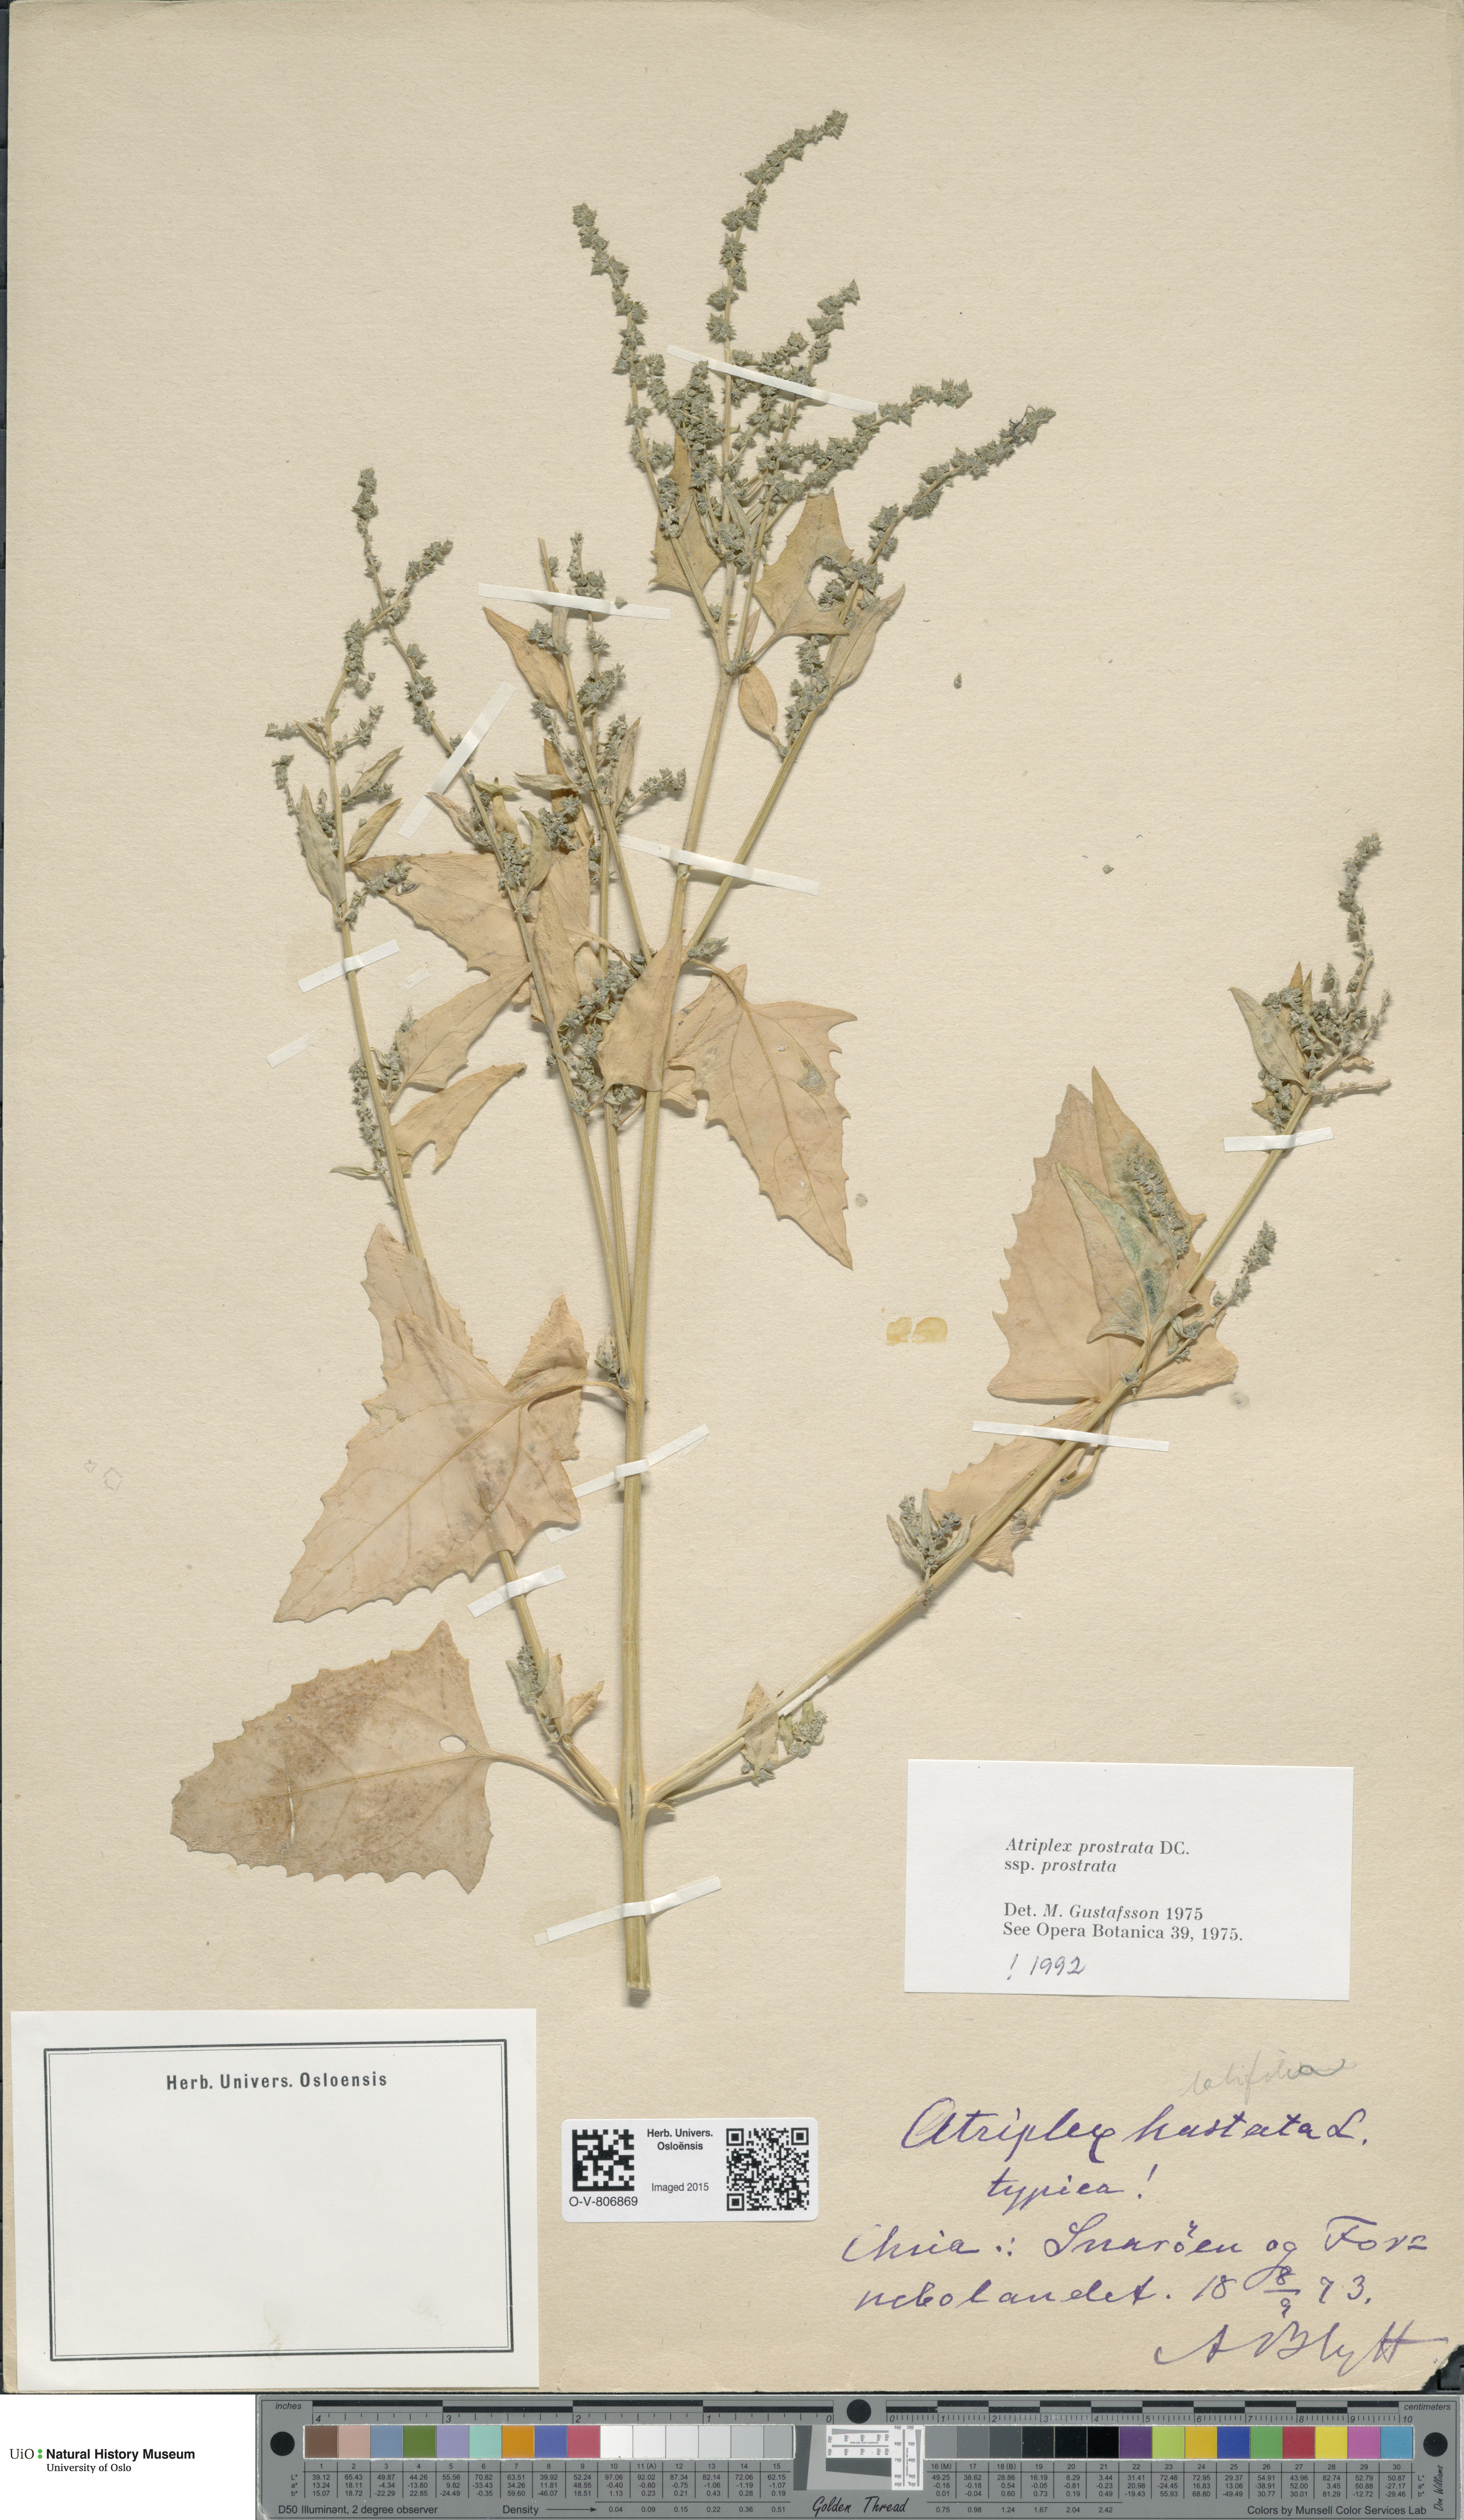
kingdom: Plantae
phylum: Tracheophyta
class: Magnoliopsida
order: Caryophyllales
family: Amaranthaceae
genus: Atriplex
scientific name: Atriplex prostrata
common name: Spear-leaved orache
